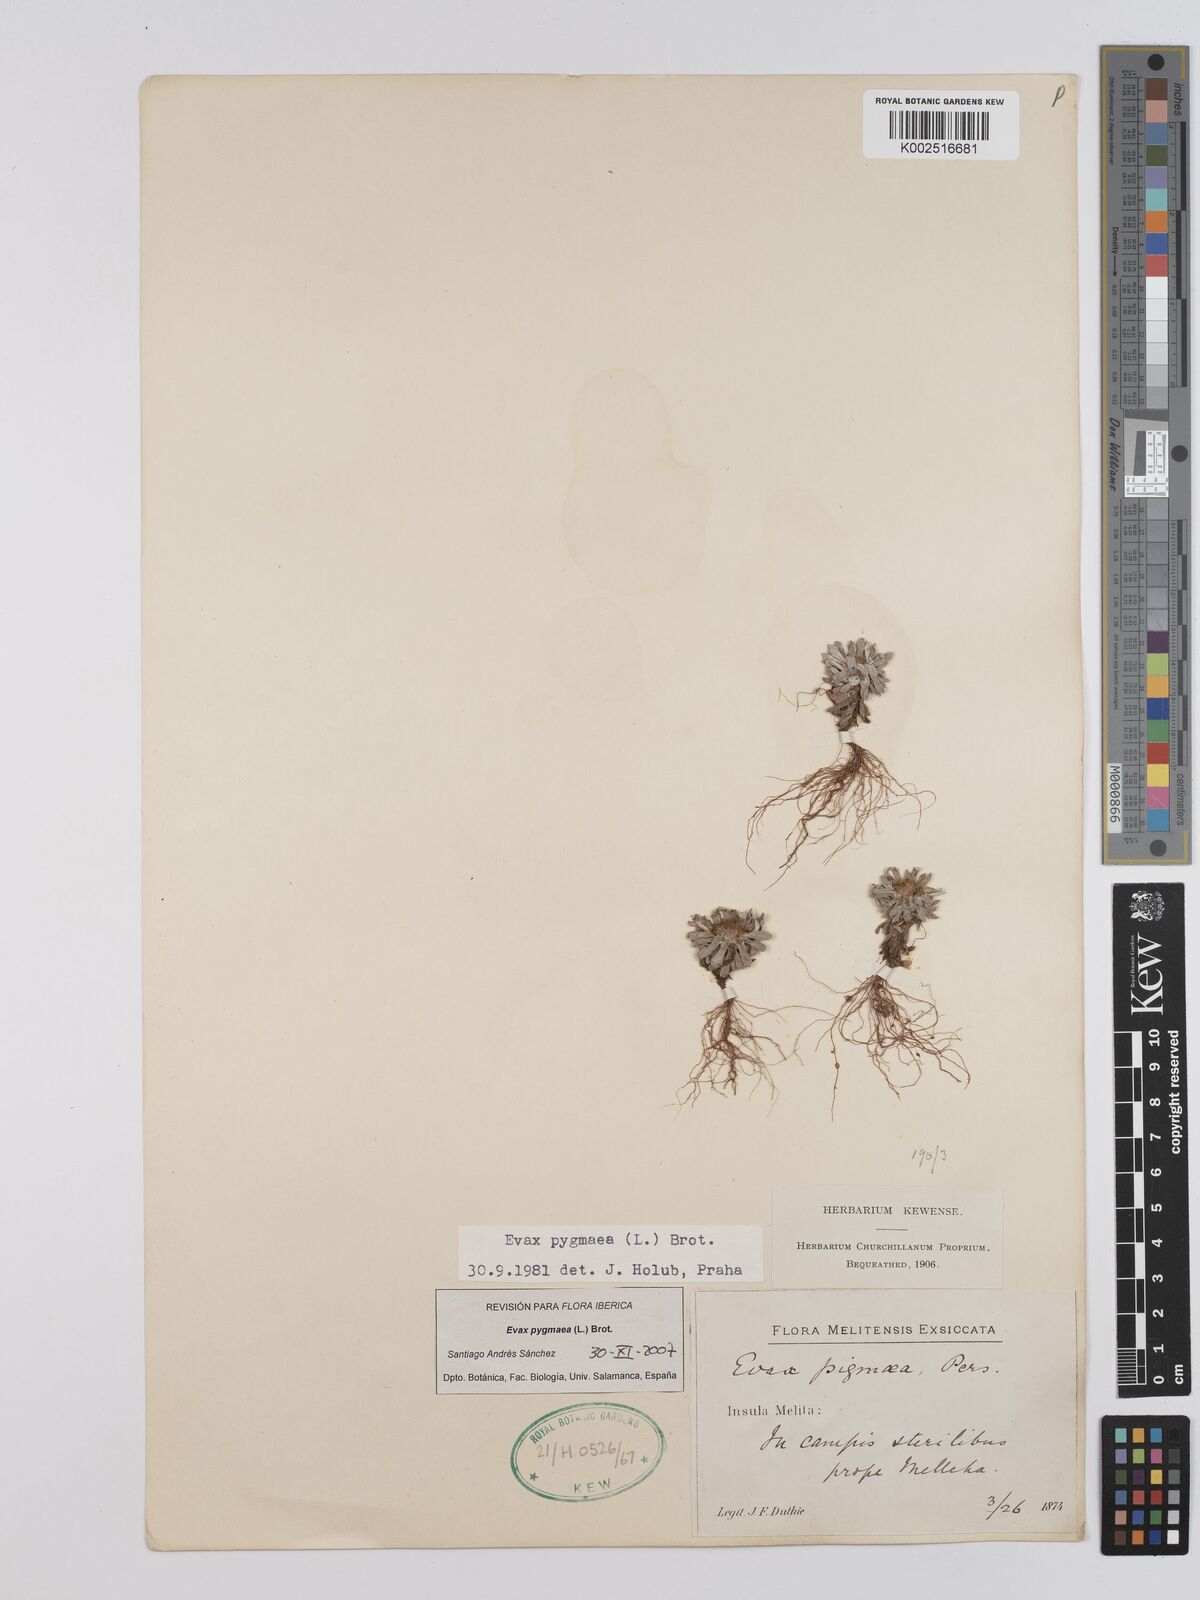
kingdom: Plantae
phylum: Tracheophyta
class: Magnoliopsida
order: Asterales
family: Asteraceae
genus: Filago
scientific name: Filago
